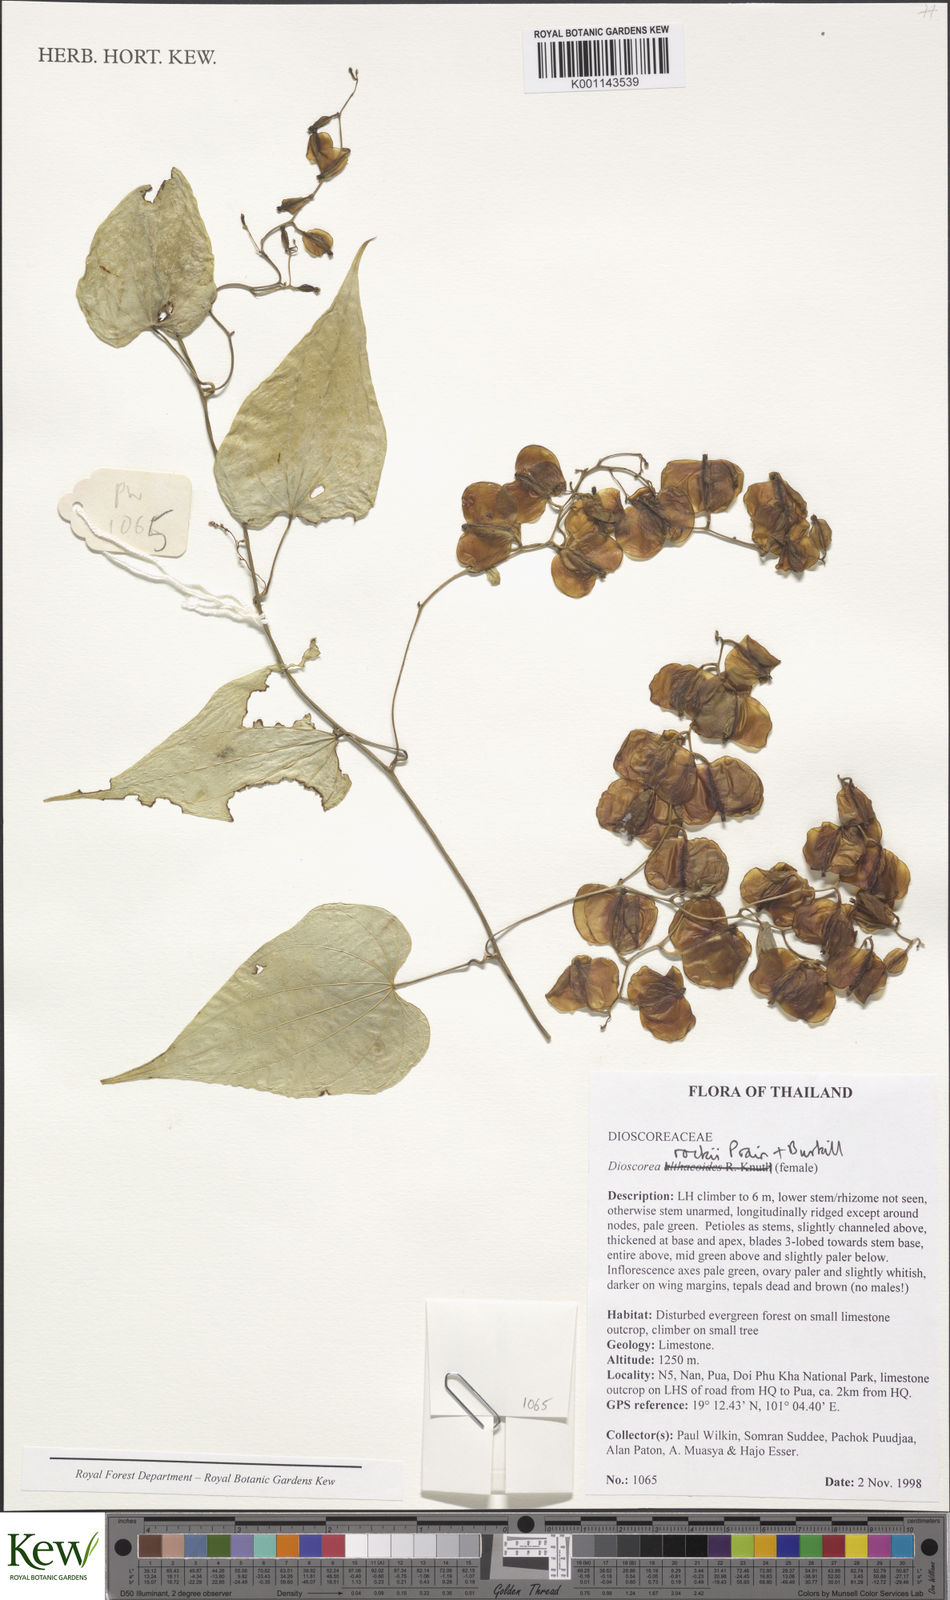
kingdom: Plantae
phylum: Tracheophyta
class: Liliopsida
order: Dioscoreales
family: Dioscoreaceae
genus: Dioscorea
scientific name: Dioscorea rockii
